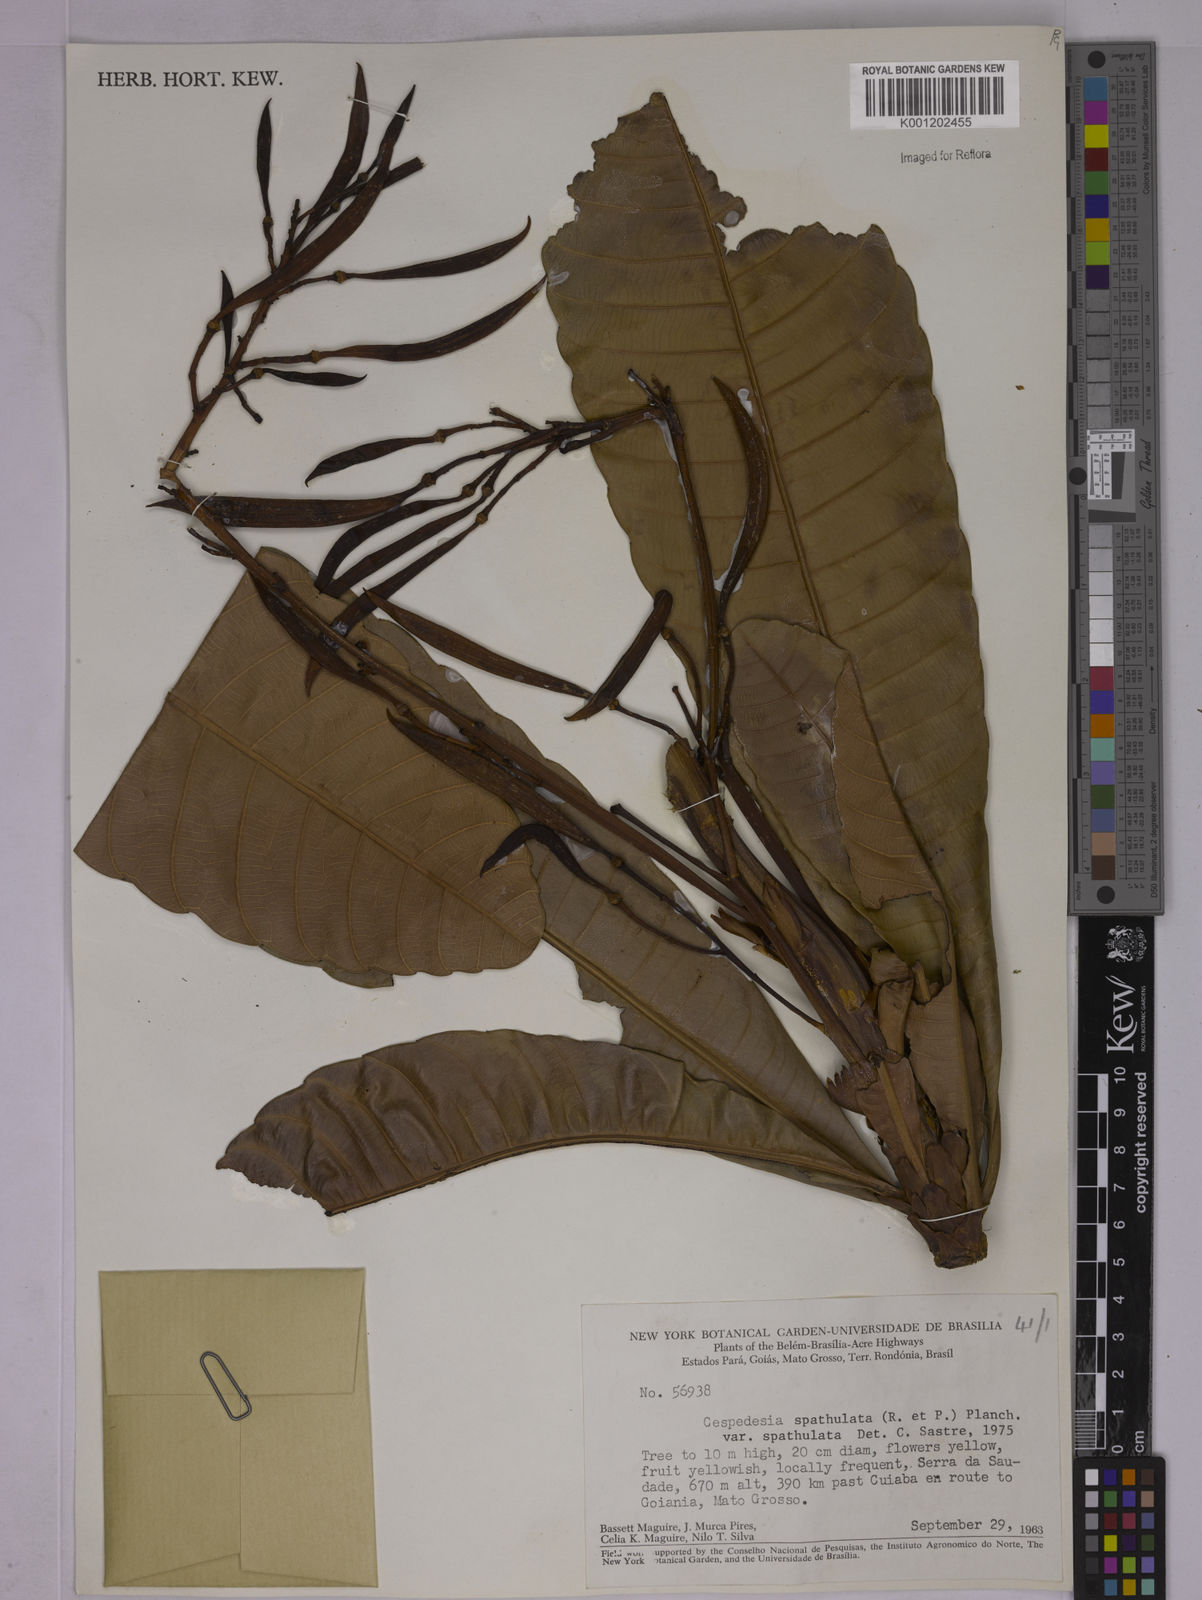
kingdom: Plantae
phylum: Tracheophyta
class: Magnoliopsida
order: Malpighiales
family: Ochnaceae
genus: Cespedesia
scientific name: Cespedesia spathulata
